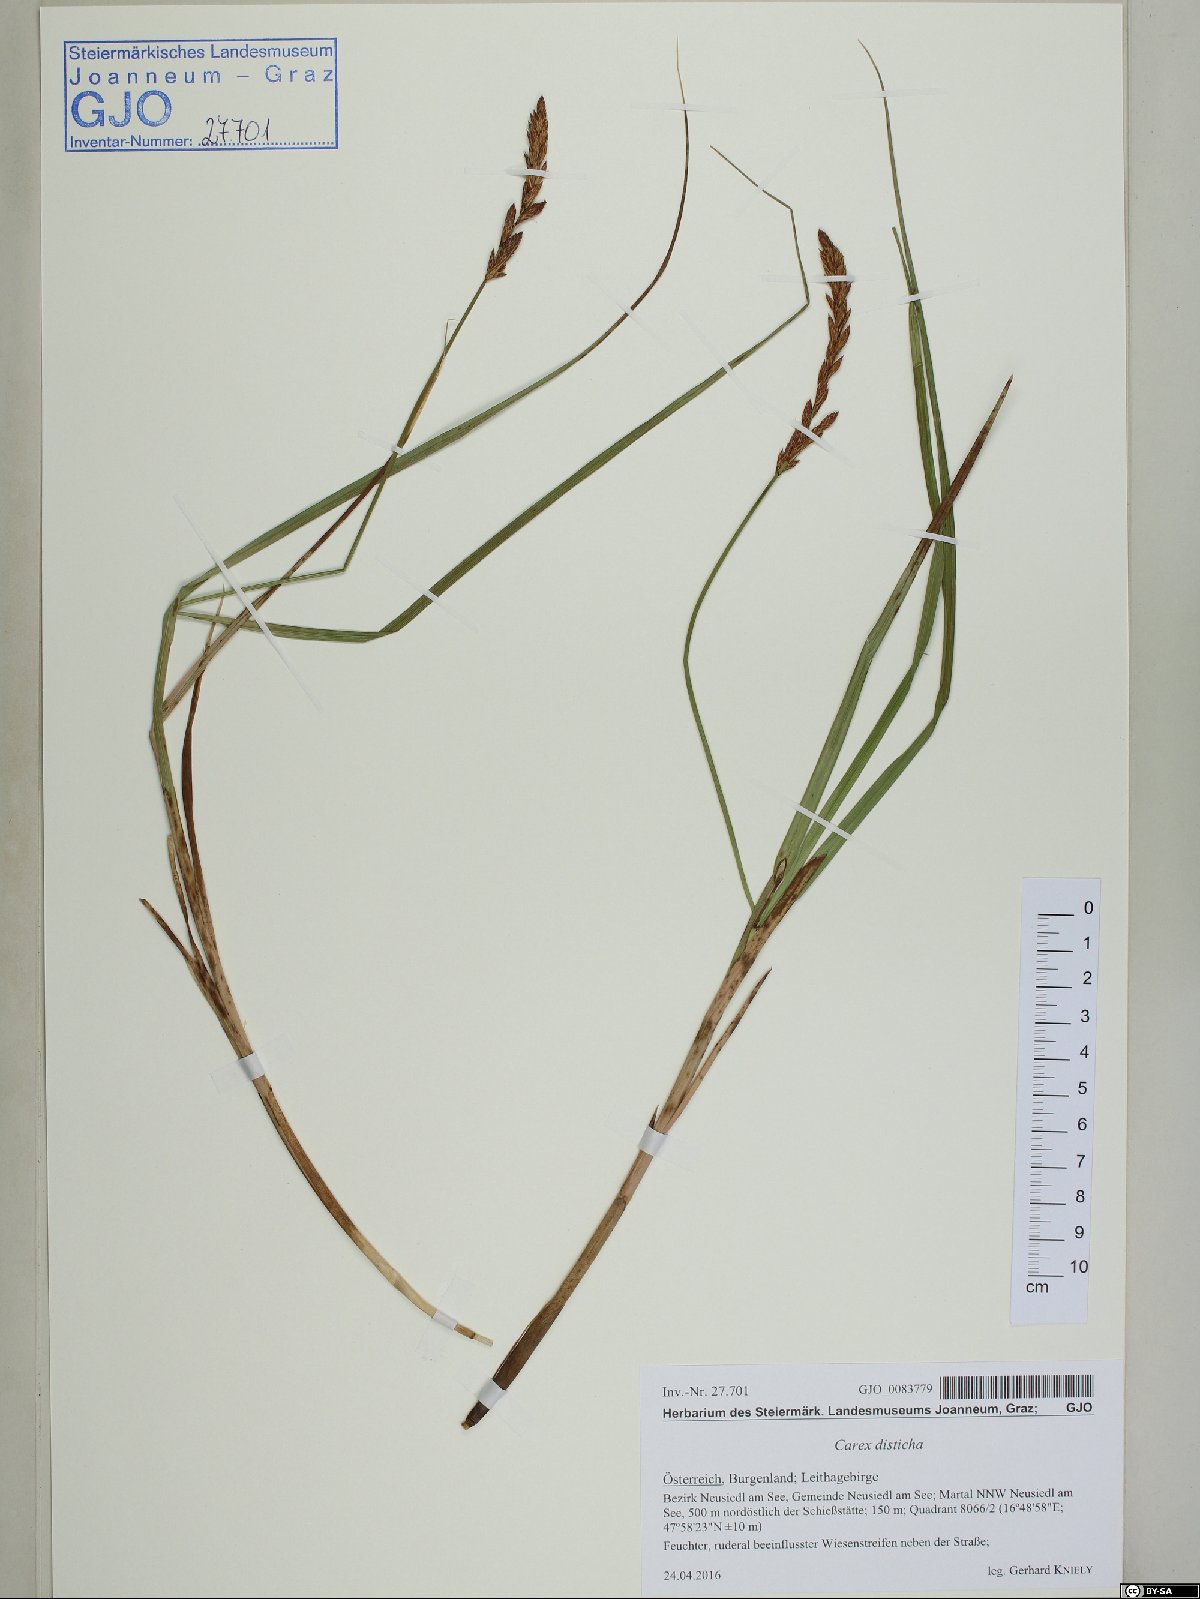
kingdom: Plantae
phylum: Tracheophyta
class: Liliopsida
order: Poales
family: Cyperaceae
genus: Carex
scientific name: Carex disticha
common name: Brown sedge
